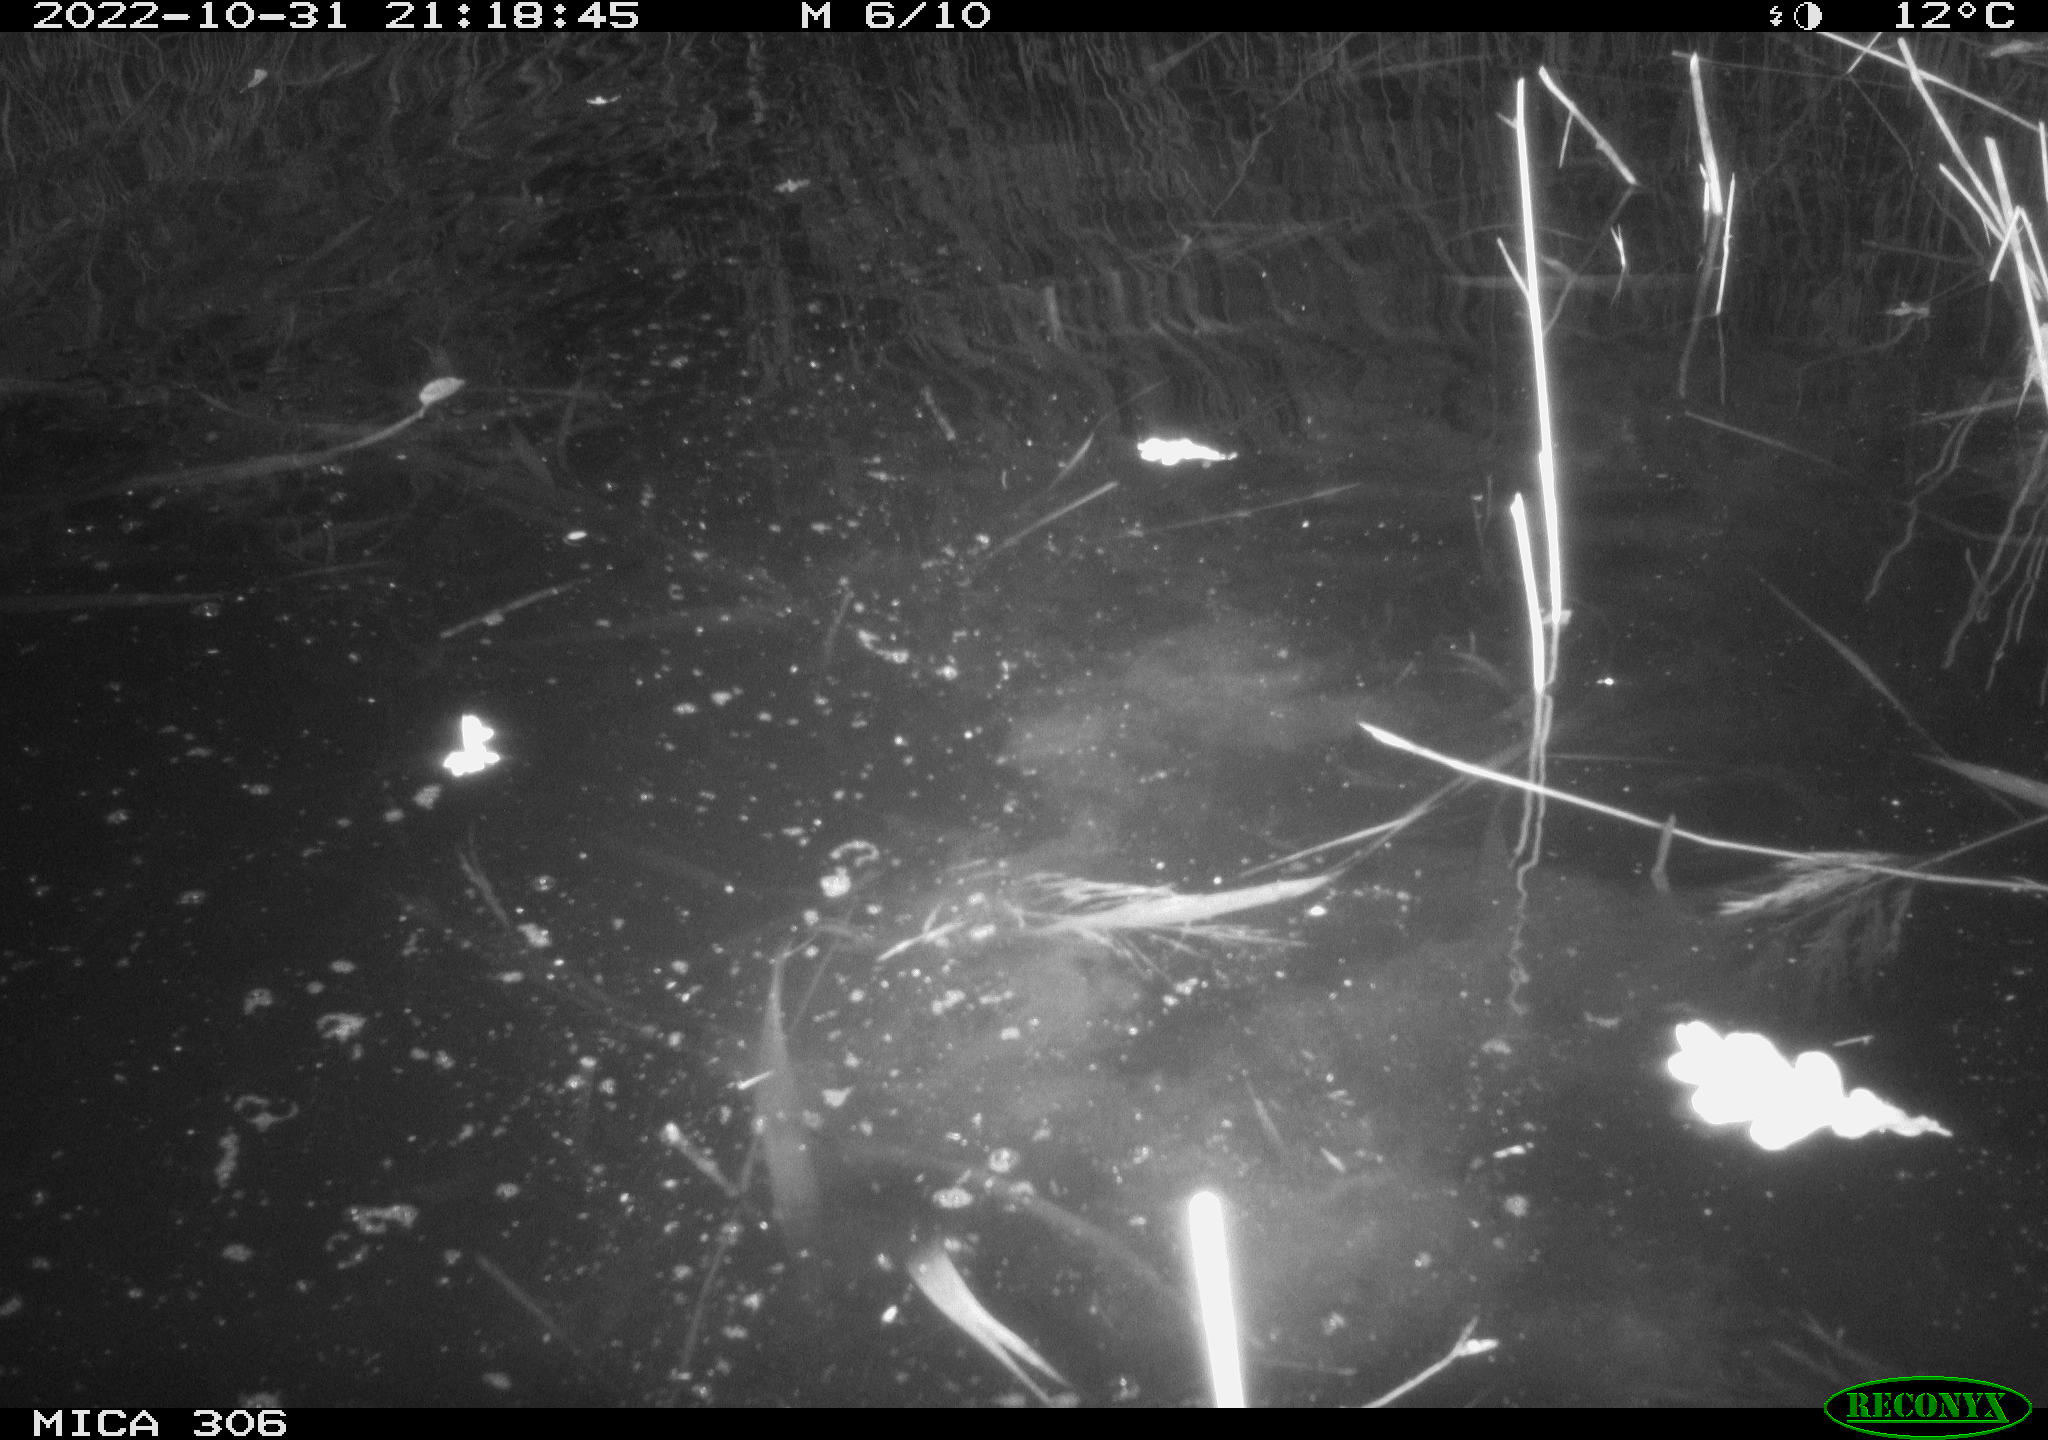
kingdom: Animalia
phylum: Chordata
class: Mammalia
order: Rodentia
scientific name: Rodentia
